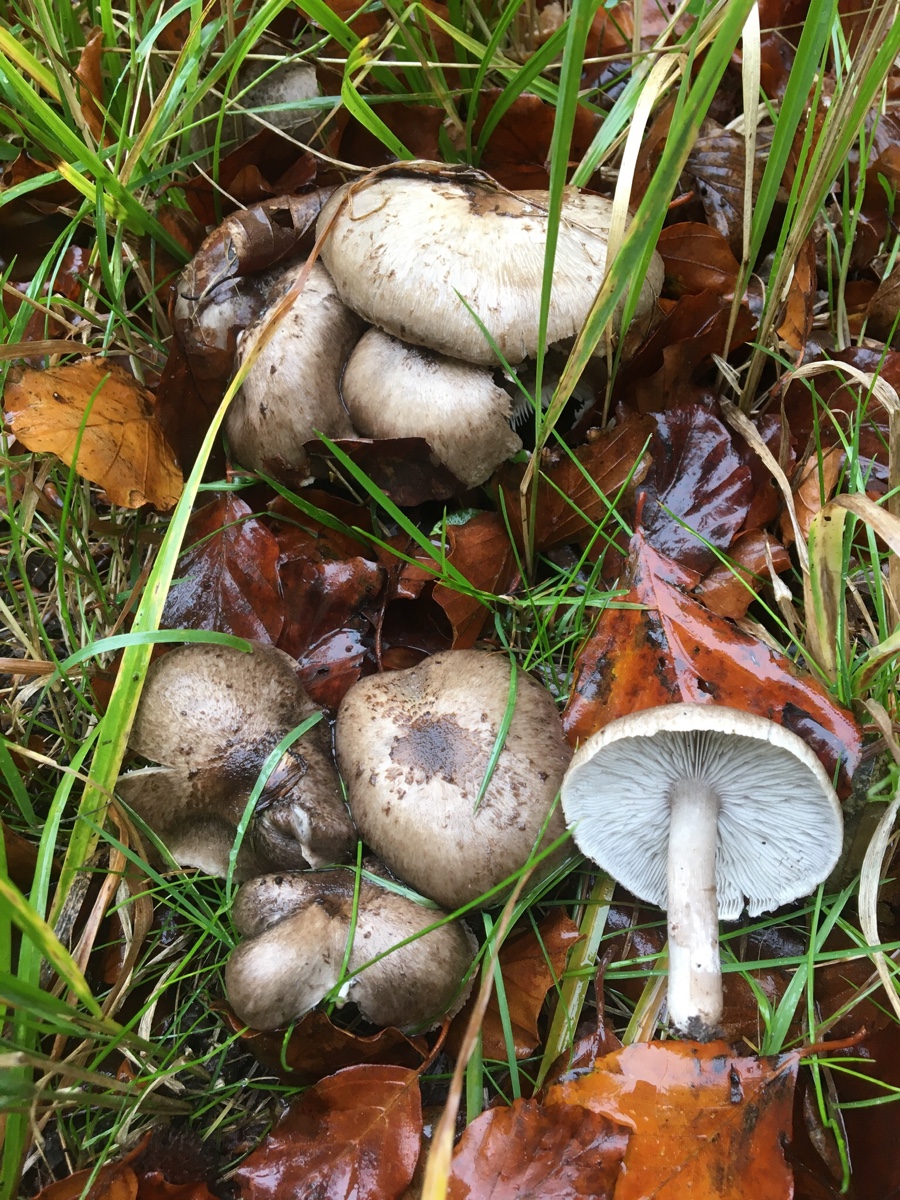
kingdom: Fungi
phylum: Basidiomycota
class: Agaricomycetes
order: Agaricales
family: Tricholomataceae
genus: Tricholoma
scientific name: Tricholoma scalpturatum
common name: gulplettet ridderhat
